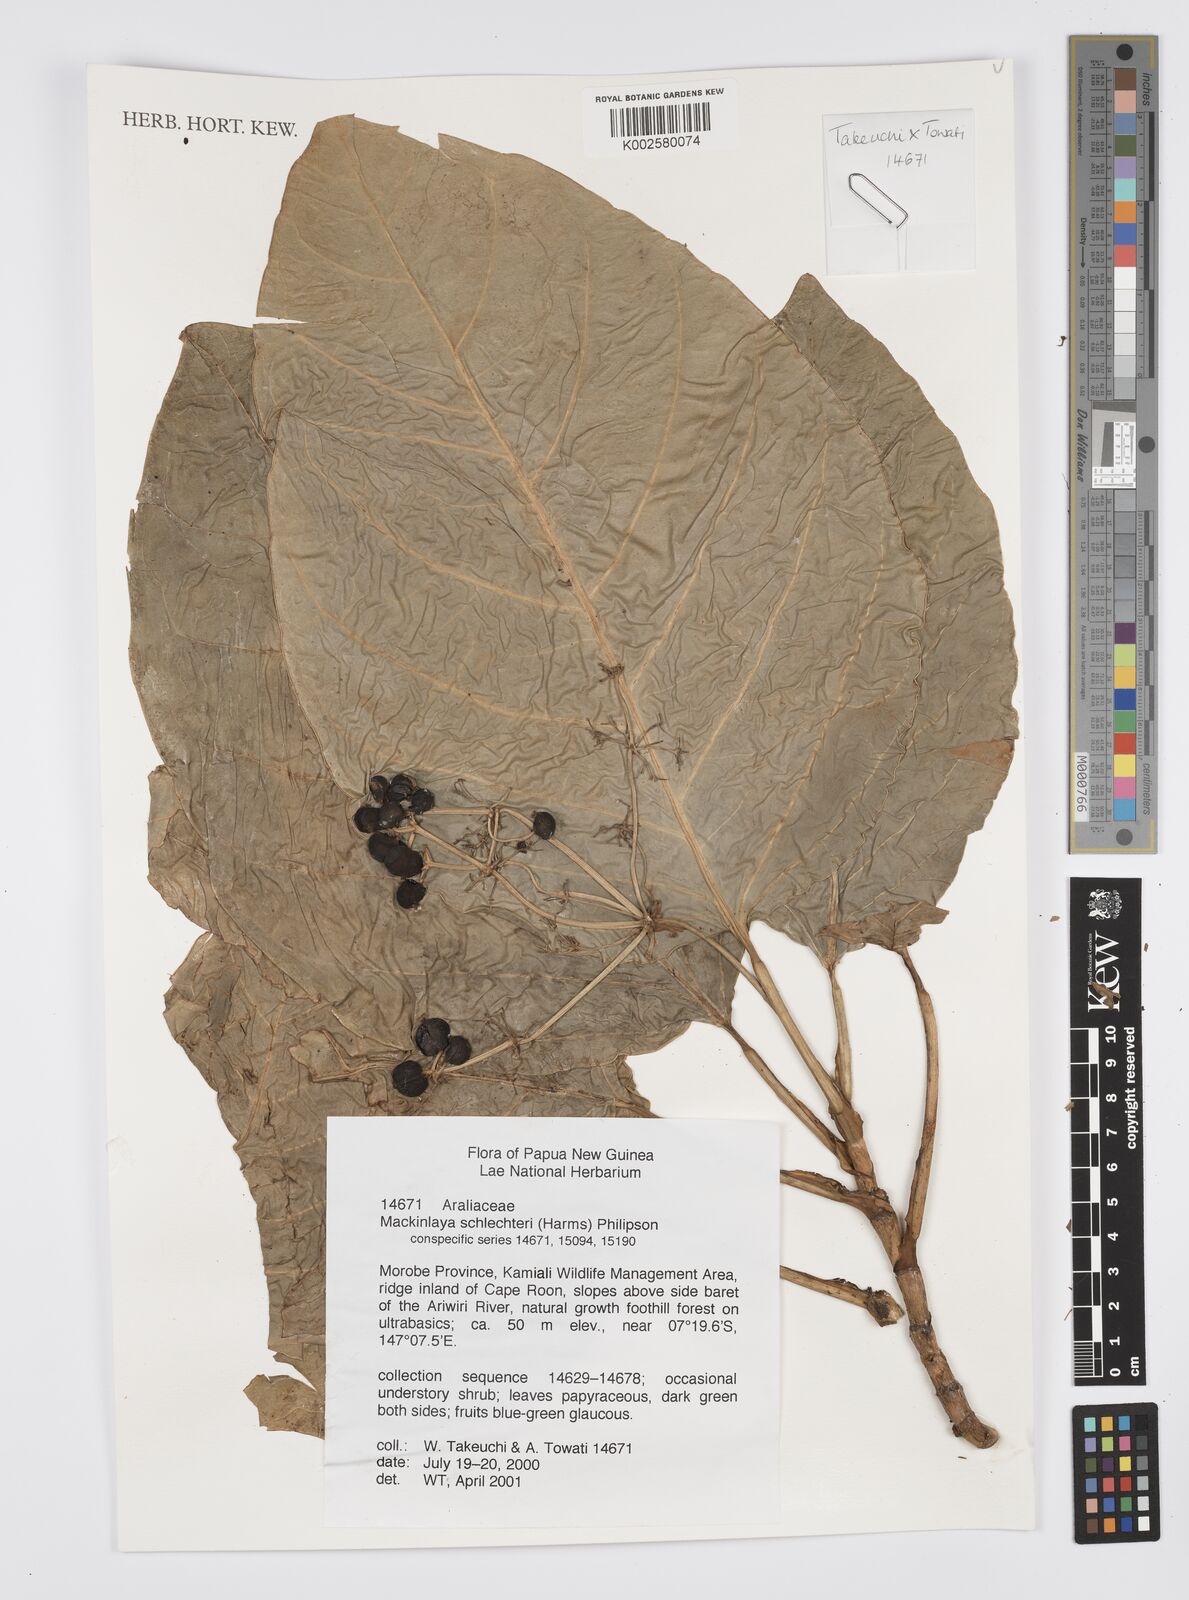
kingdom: Plantae
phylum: Tracheophyta
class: Magnoliopsida
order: Apiales
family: Apiaceae
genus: Mackinlaya
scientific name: Mackinlaya schlechteri
